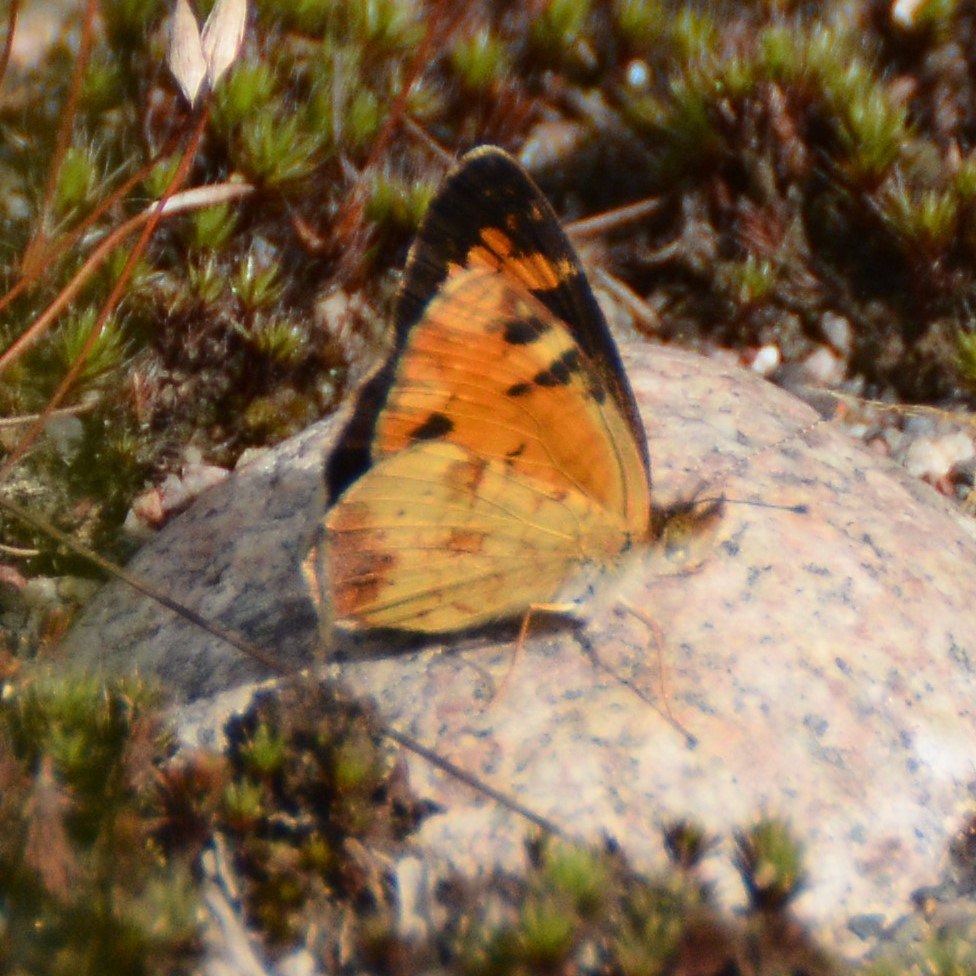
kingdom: Animalia
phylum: Arthropoda
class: Insecta
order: Lepidoptera
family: Nymphalidae
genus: Phyciodes
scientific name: Phyciodes tharos
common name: Northern Crescent
